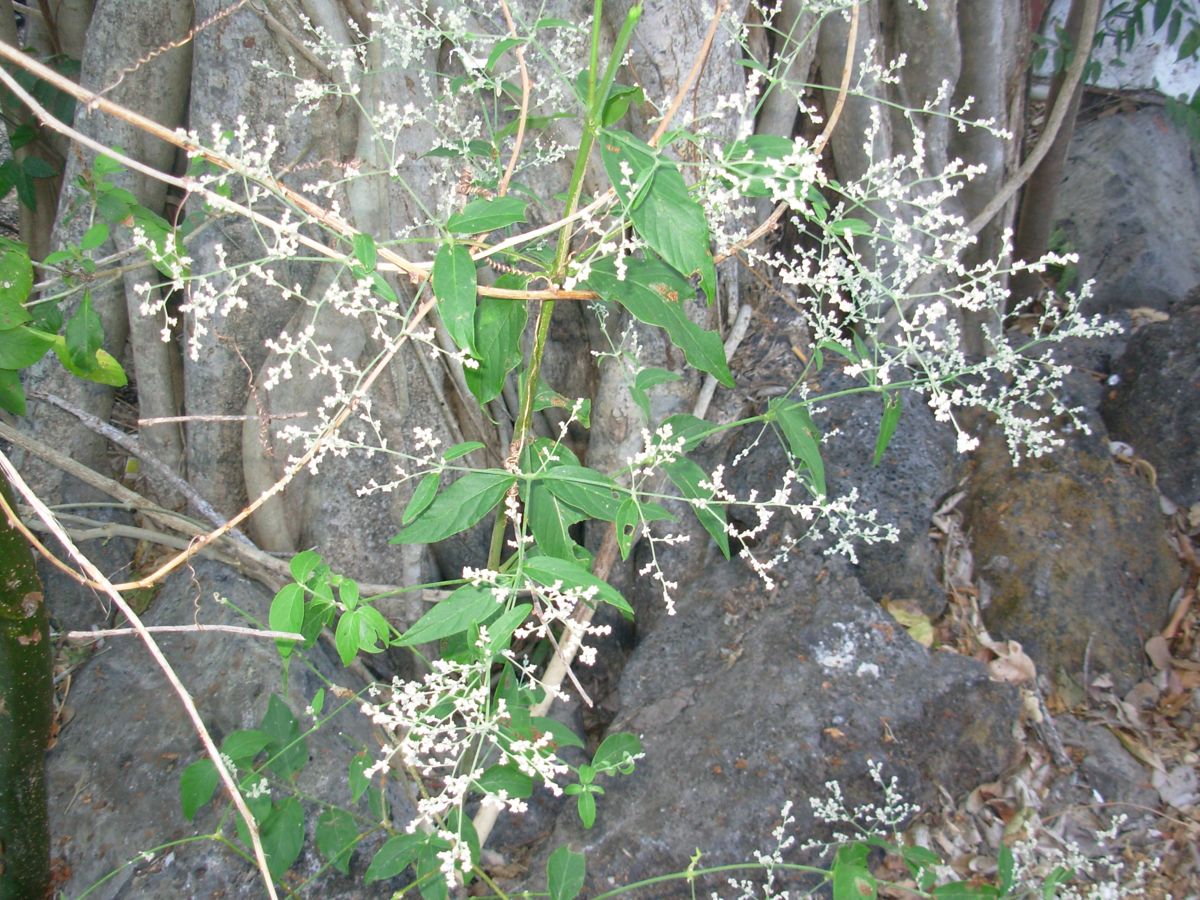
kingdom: Plantae
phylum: Tracheophyta
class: Magnoliopsida
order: Caryophyllales
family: Amaranthaceae
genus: Iresine
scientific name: Iresine latifolia
